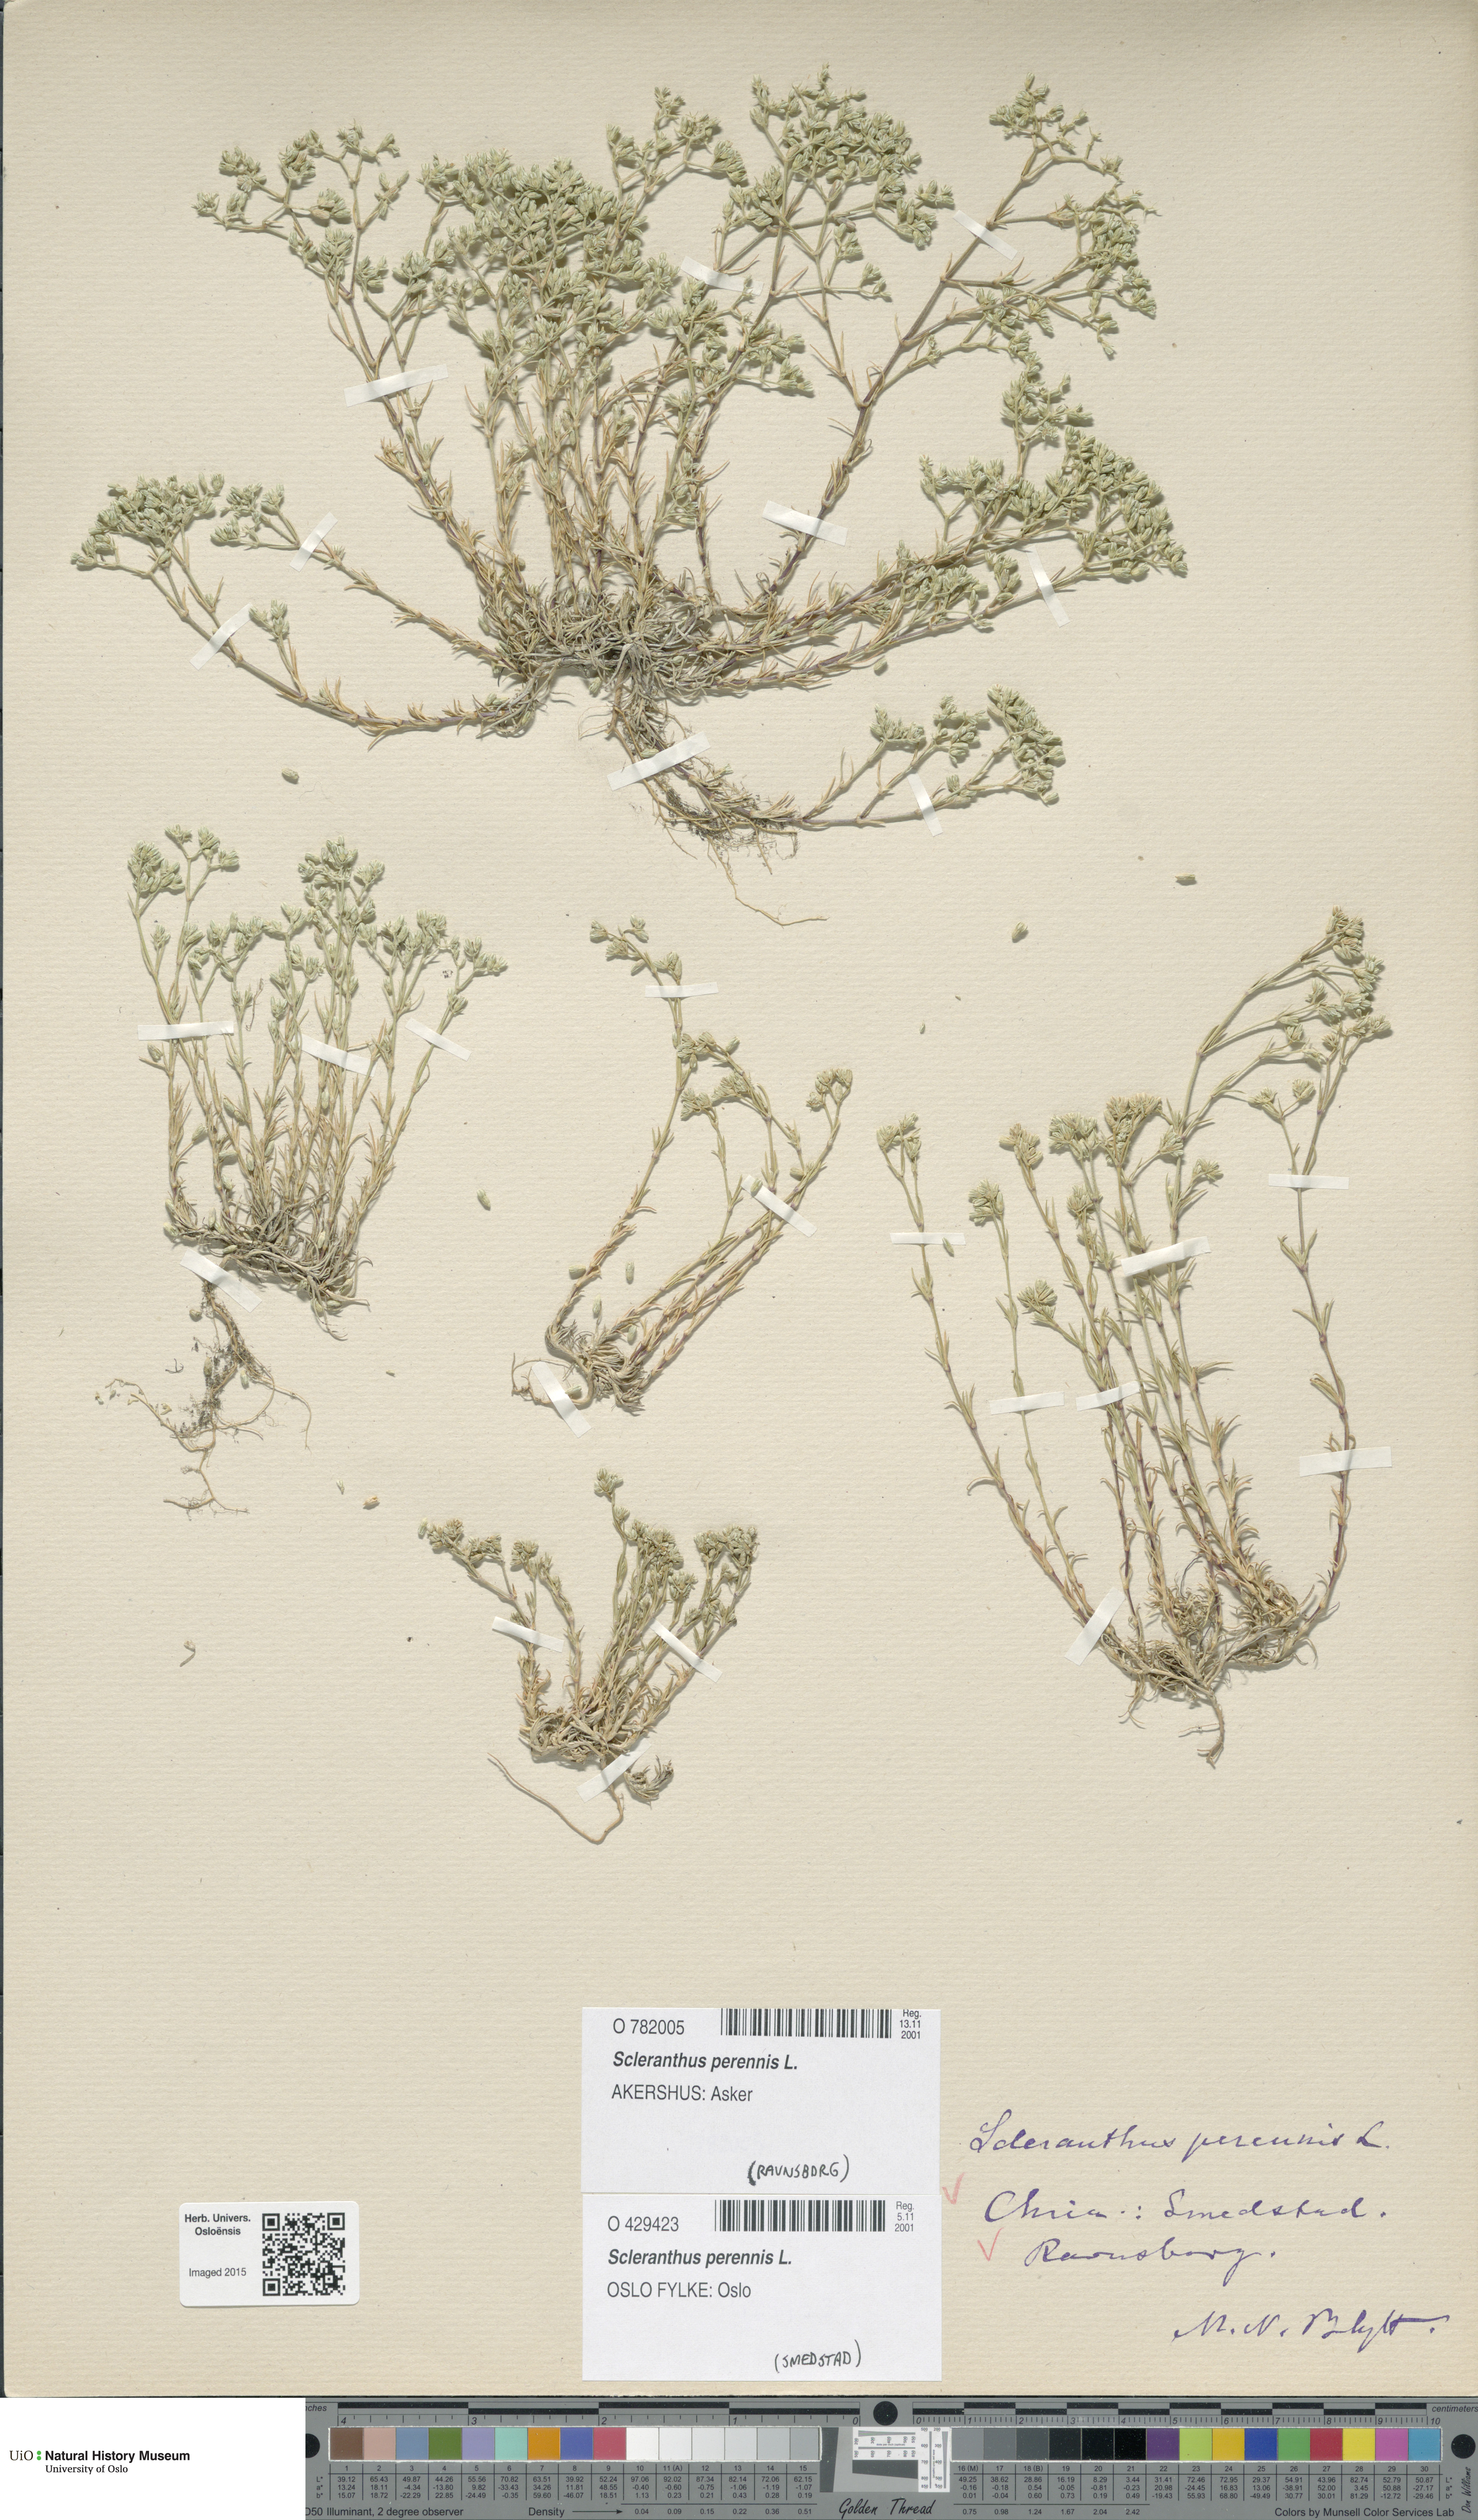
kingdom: Plantae
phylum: Tracheophyta
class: Magnoliopsida
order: Caryophyllales
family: Caryophyllaceae
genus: Scleranthus
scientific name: Scleranthus perennis
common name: Perennial knawel
